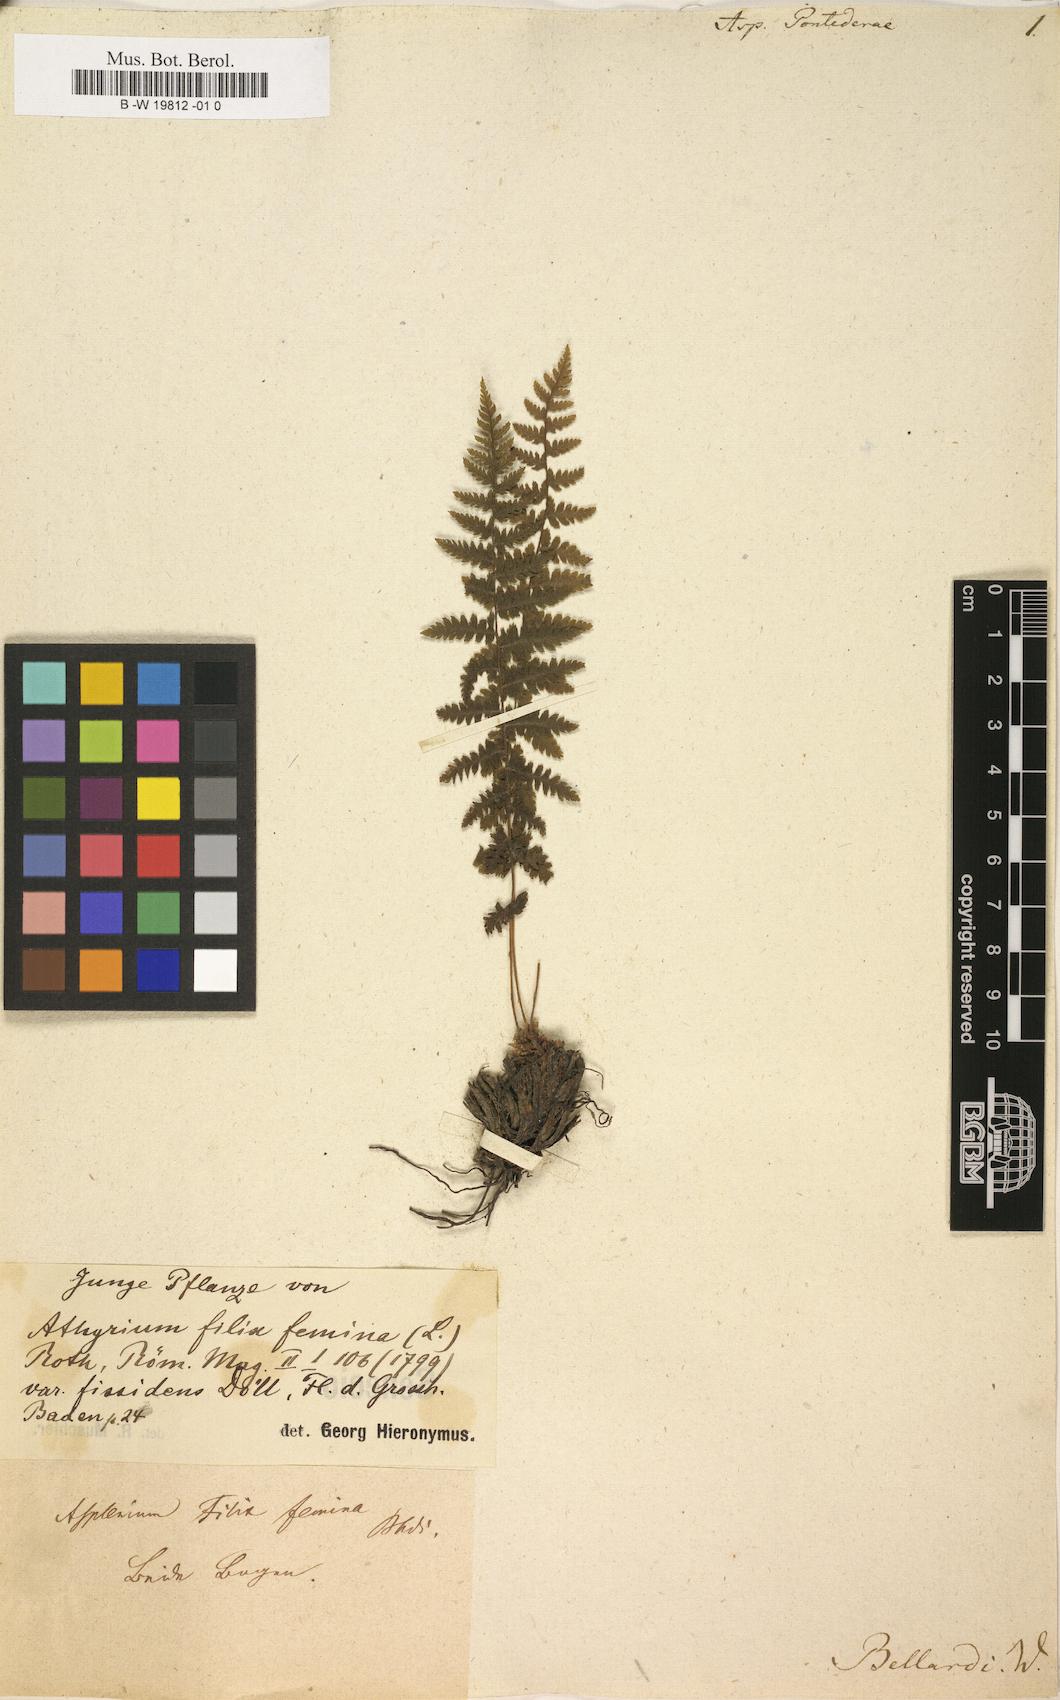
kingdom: Plantae
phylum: Tracheophyta
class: Polypodiopsida
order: Polypodiales
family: Athyriaceae
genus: Athyrium
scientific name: Athyrium filix-femina
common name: Lady fern
